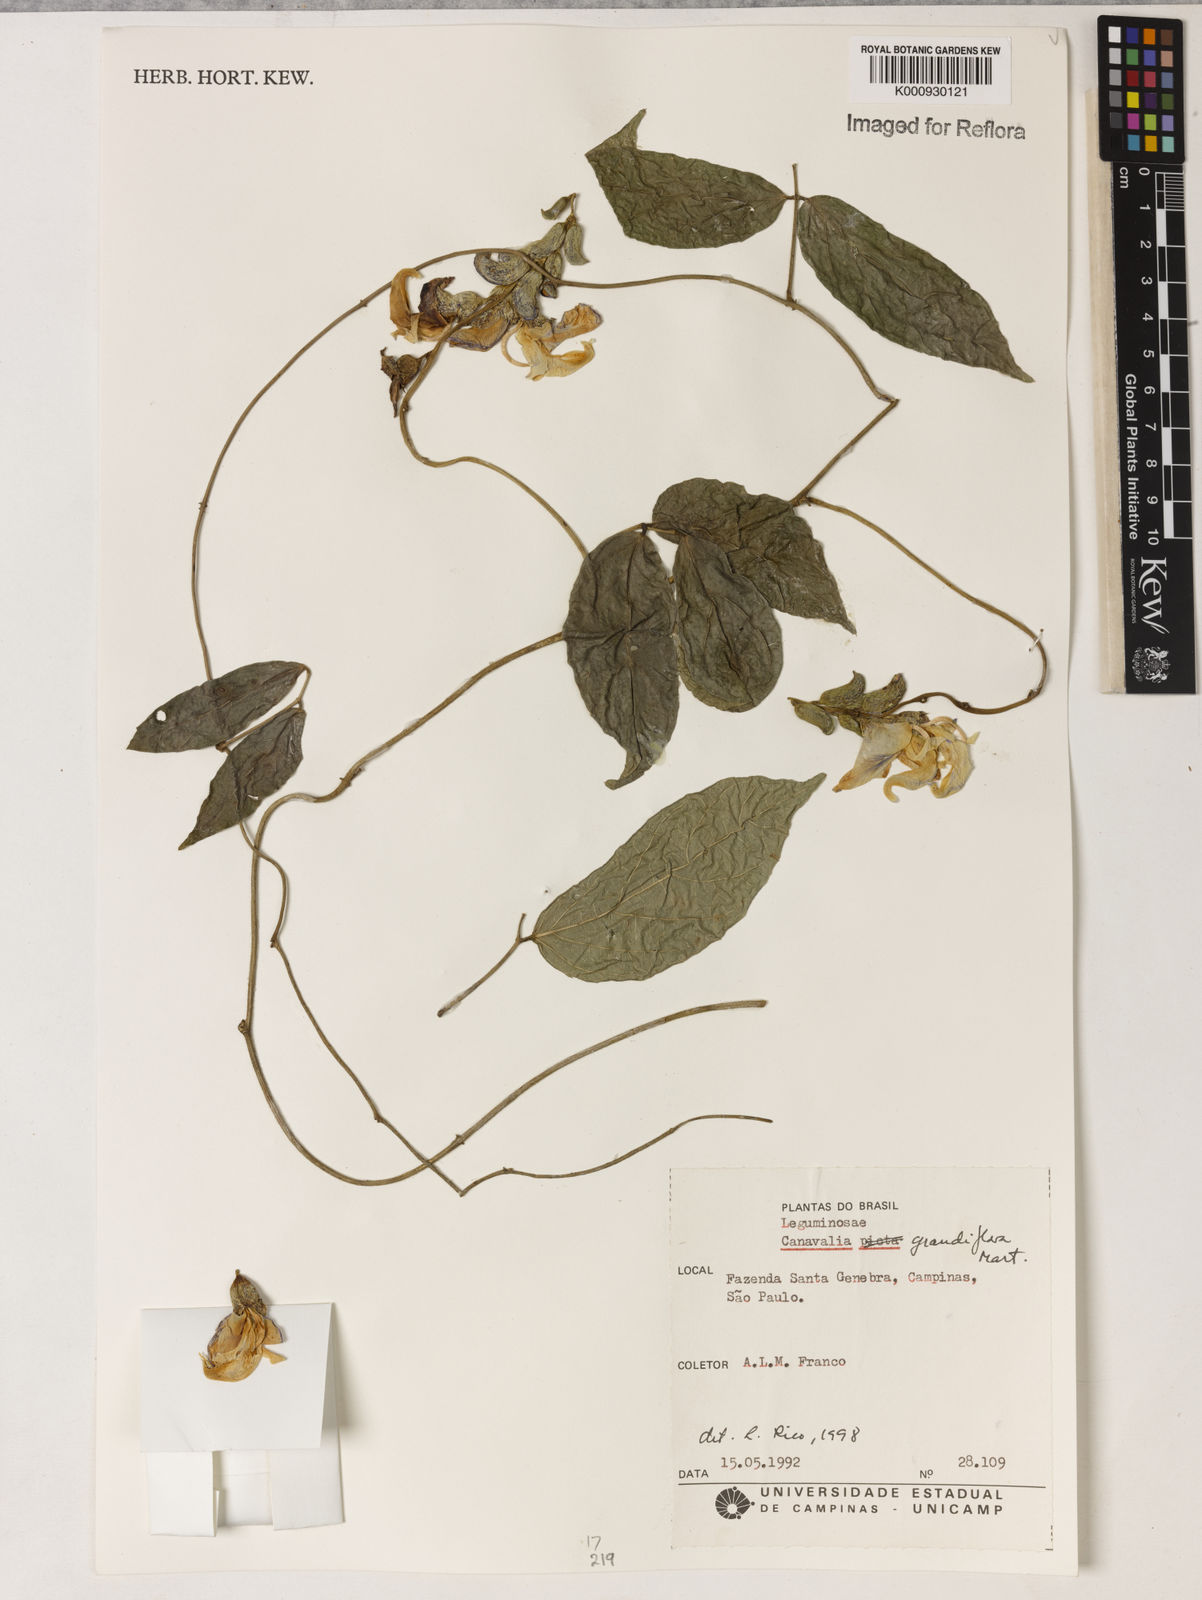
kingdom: Plantae
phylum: Tracheophyta
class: Magnoliopsida
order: Fabales
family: Fabaceae
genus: Canavalia
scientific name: Canavalia grandiflora
